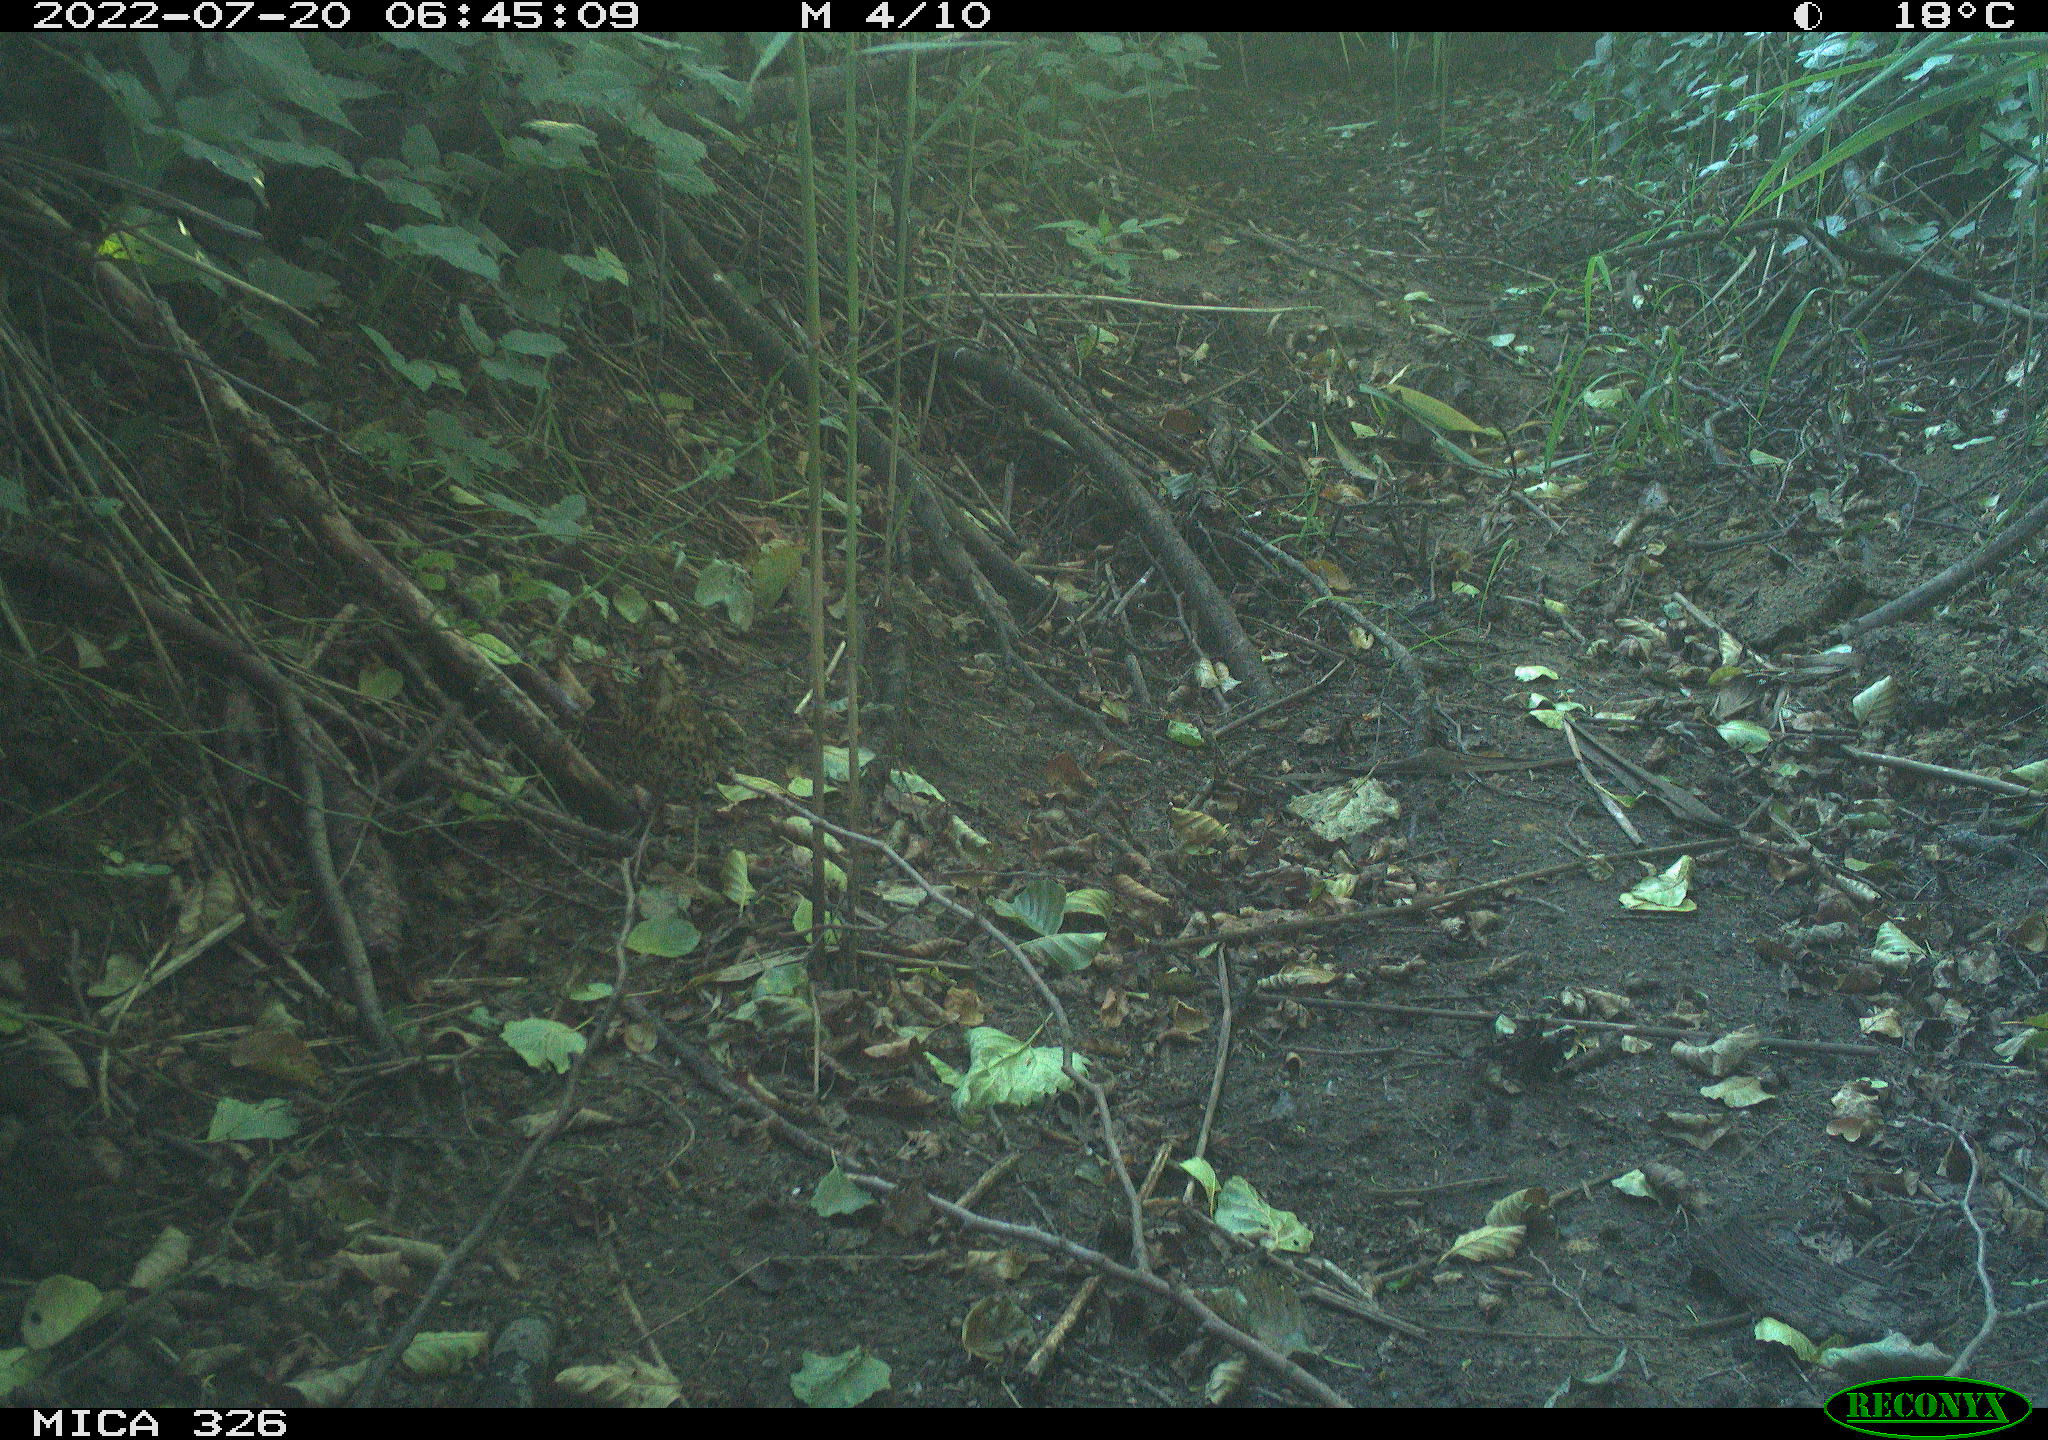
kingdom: Animalia
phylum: Chordata
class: Aves
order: Passeriformes
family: Turdidae
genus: Turdus
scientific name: Turdus philomelos
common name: Song thrush
